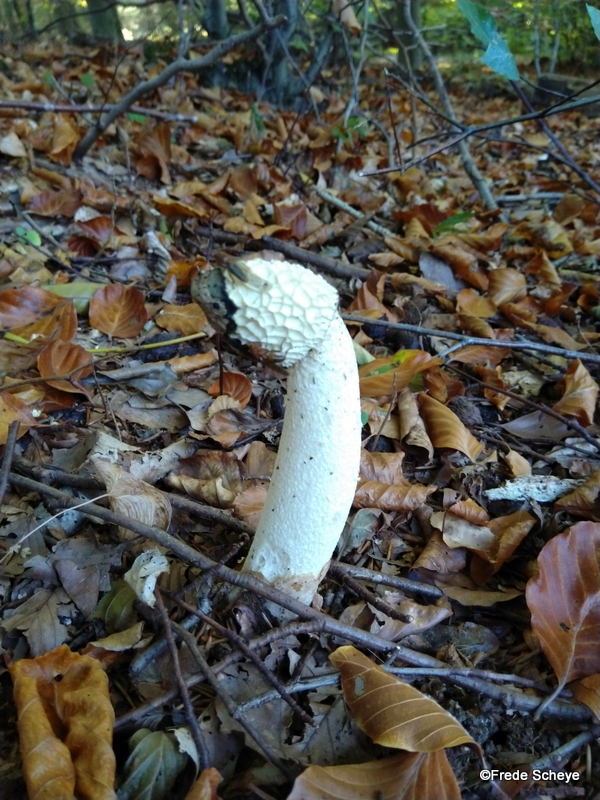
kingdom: Fungi
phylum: Basidiomycota
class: Agaricomycetes
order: Phallales
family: Phallaceae
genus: Phallus
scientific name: Phallus impudicus
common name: almindelig stinksvamp
